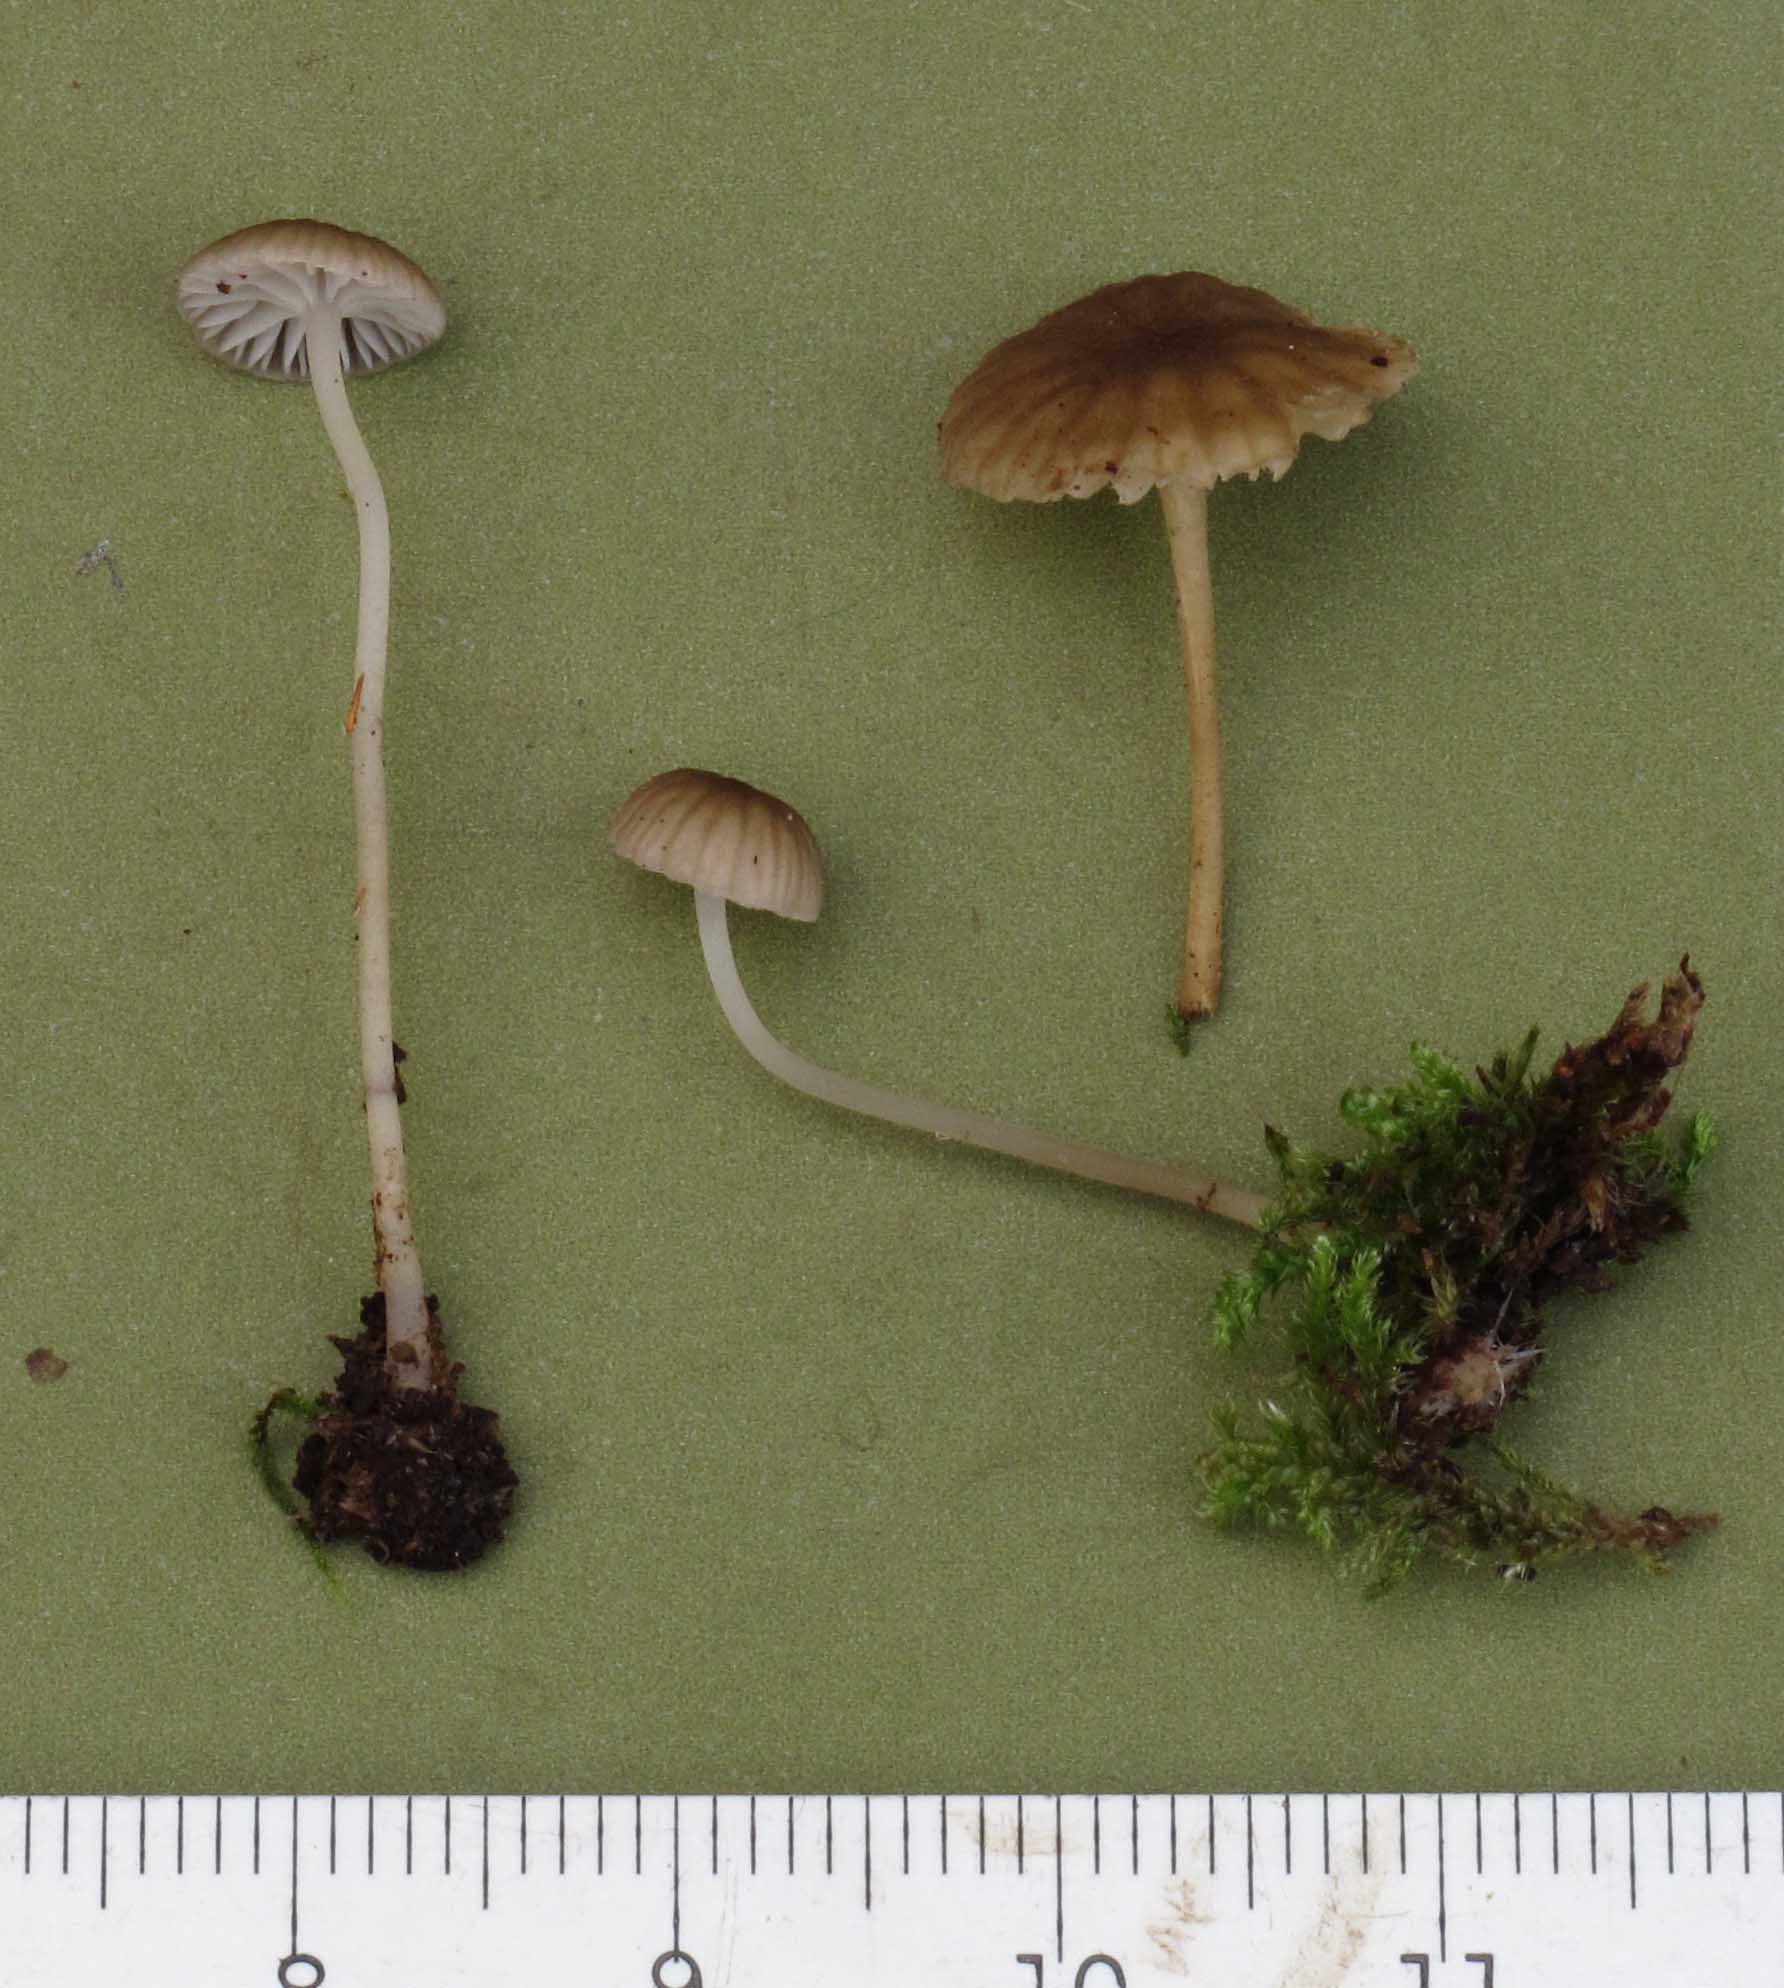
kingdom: Fungi
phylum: Basidiomycota
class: Agaricomycetes
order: Agaricales
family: Porotheleaceae
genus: Phloeomana
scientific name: Phloeomana speirea
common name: kvist-huesvamp
